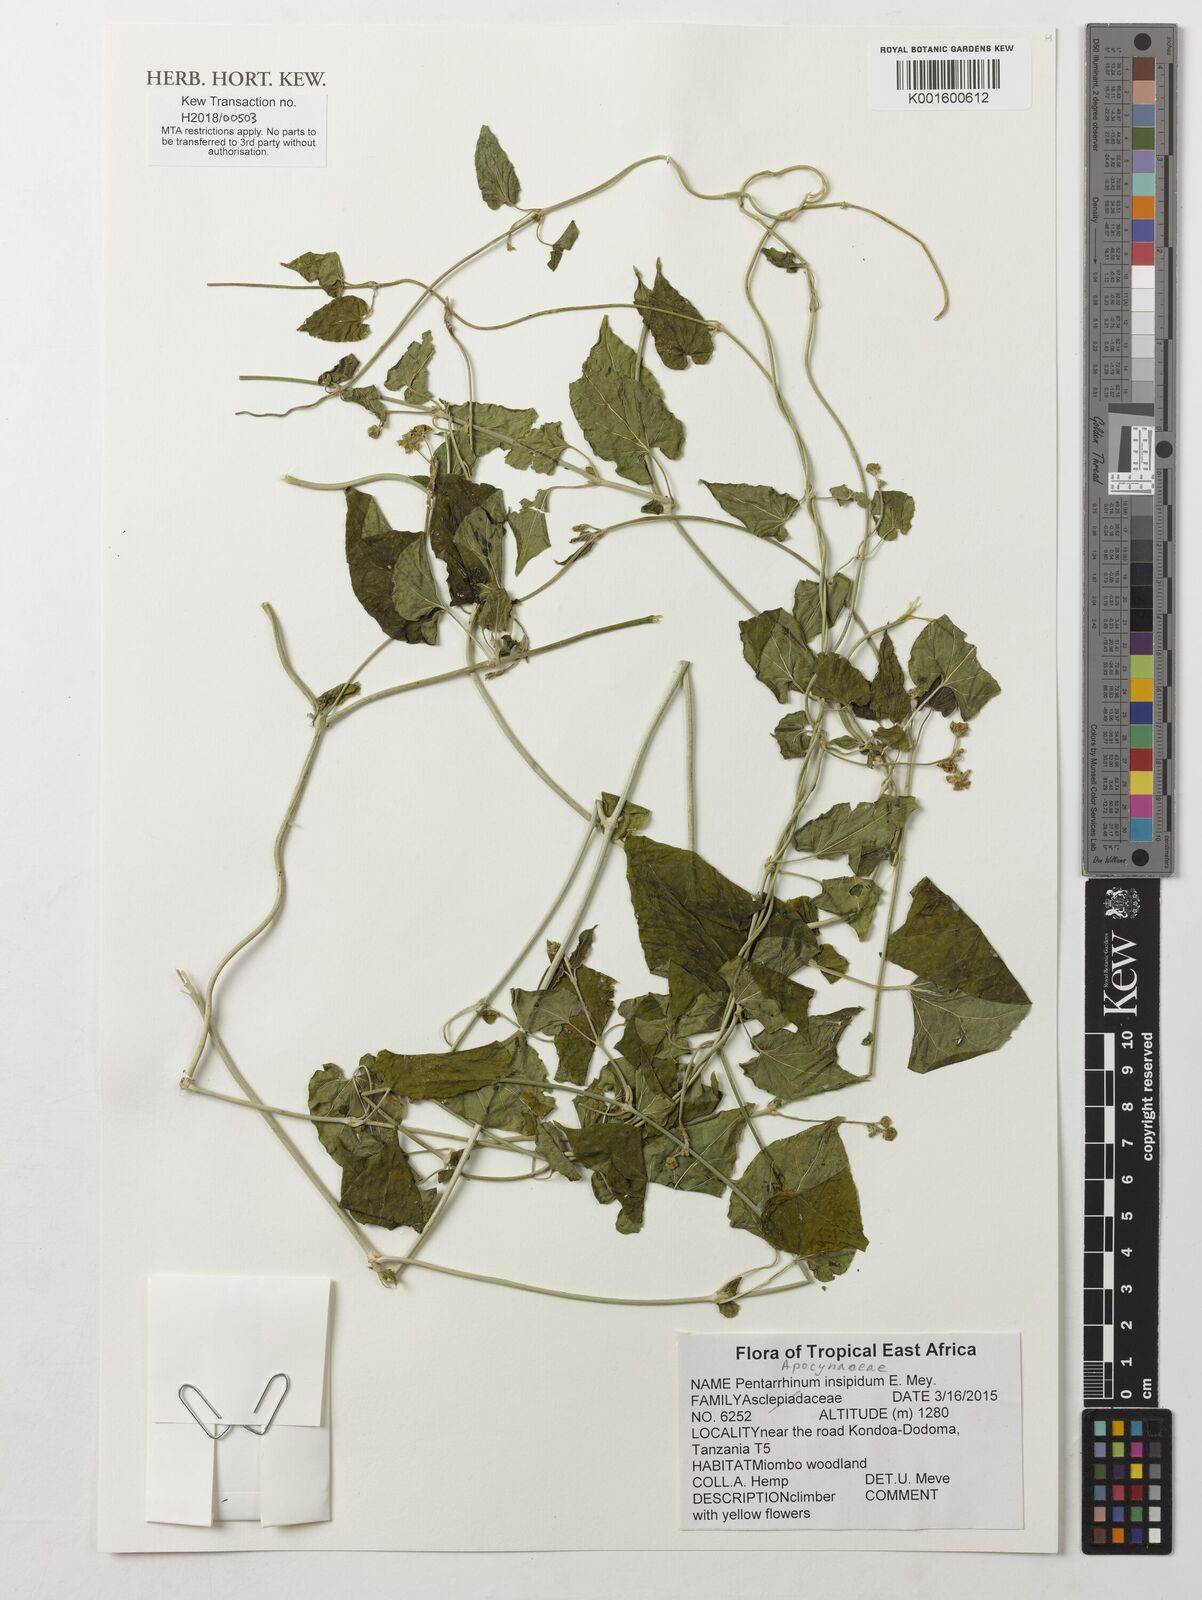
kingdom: Plantae
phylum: Tracheophyta
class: Magnoliopsida
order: Gentianales
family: Apocynaceae
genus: Cynanchum
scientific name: Cynanchum insipidum
